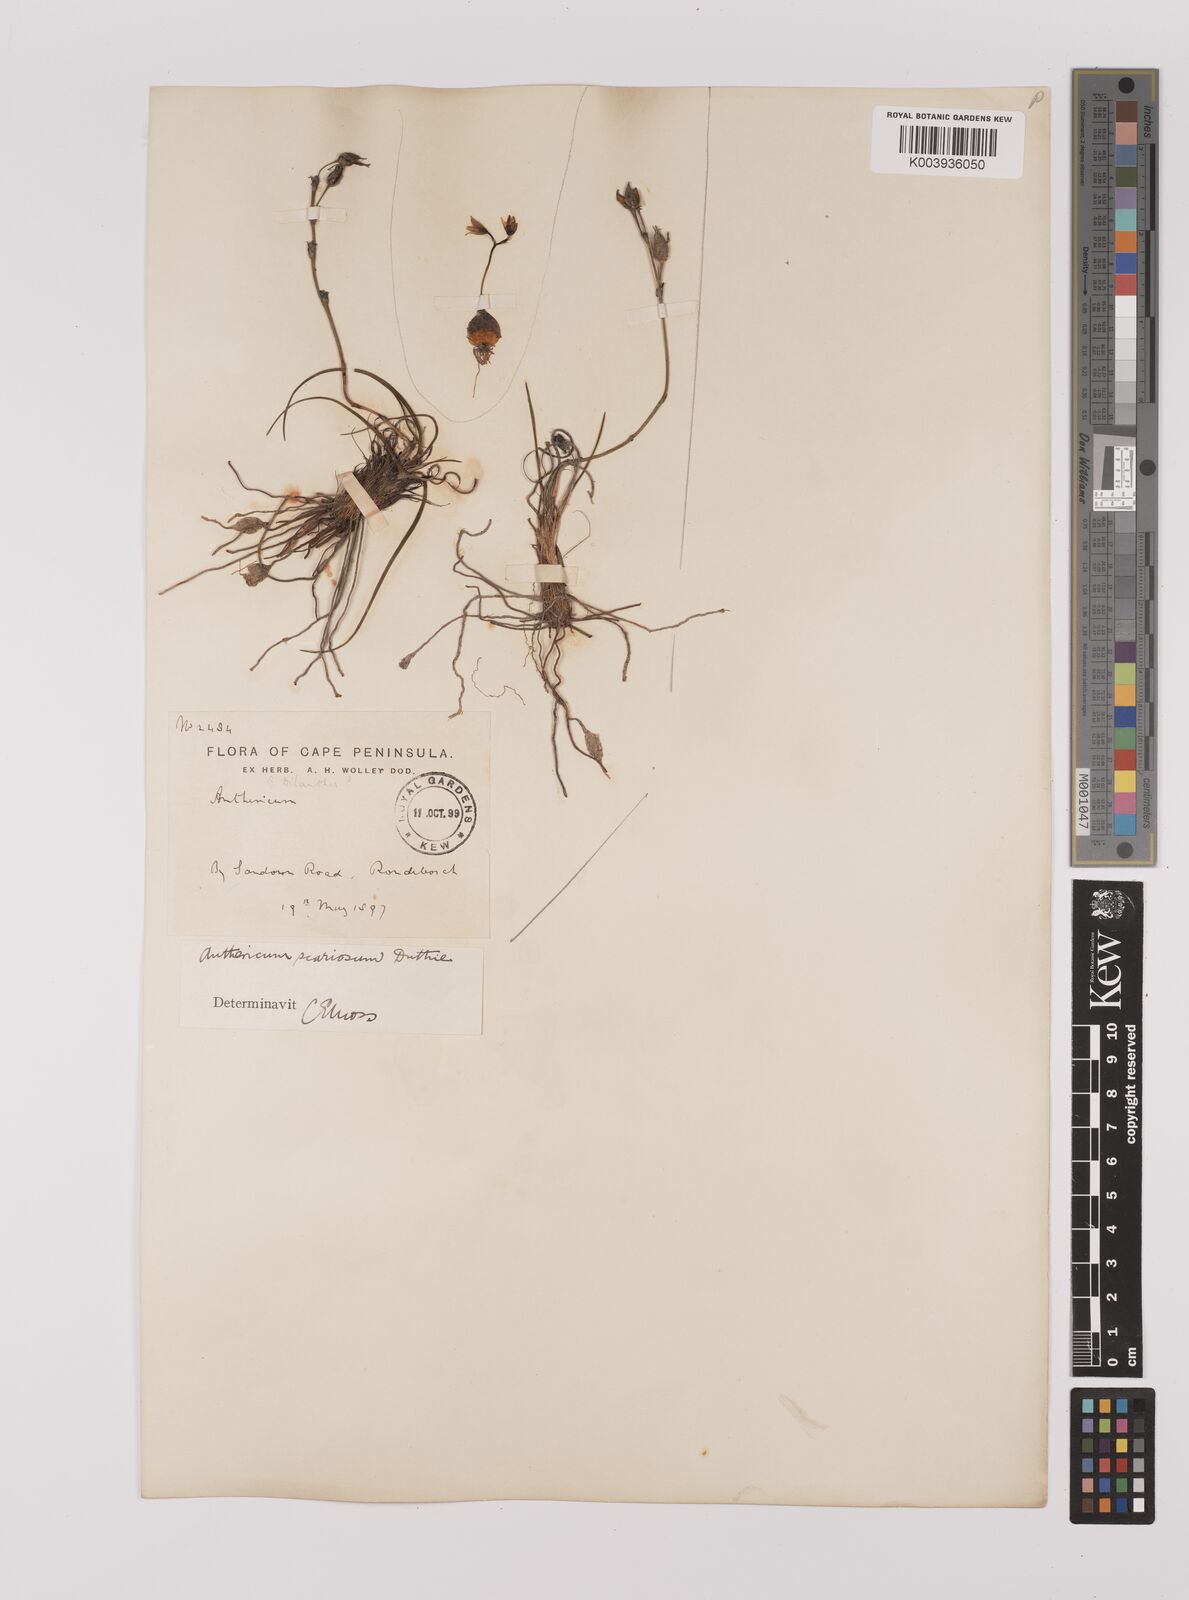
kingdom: Plantae
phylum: Tracheophyta
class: Liliopsida
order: Asparagales
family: Asparagaceae
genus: Chlorophytum
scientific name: Chlorophytum rangei
